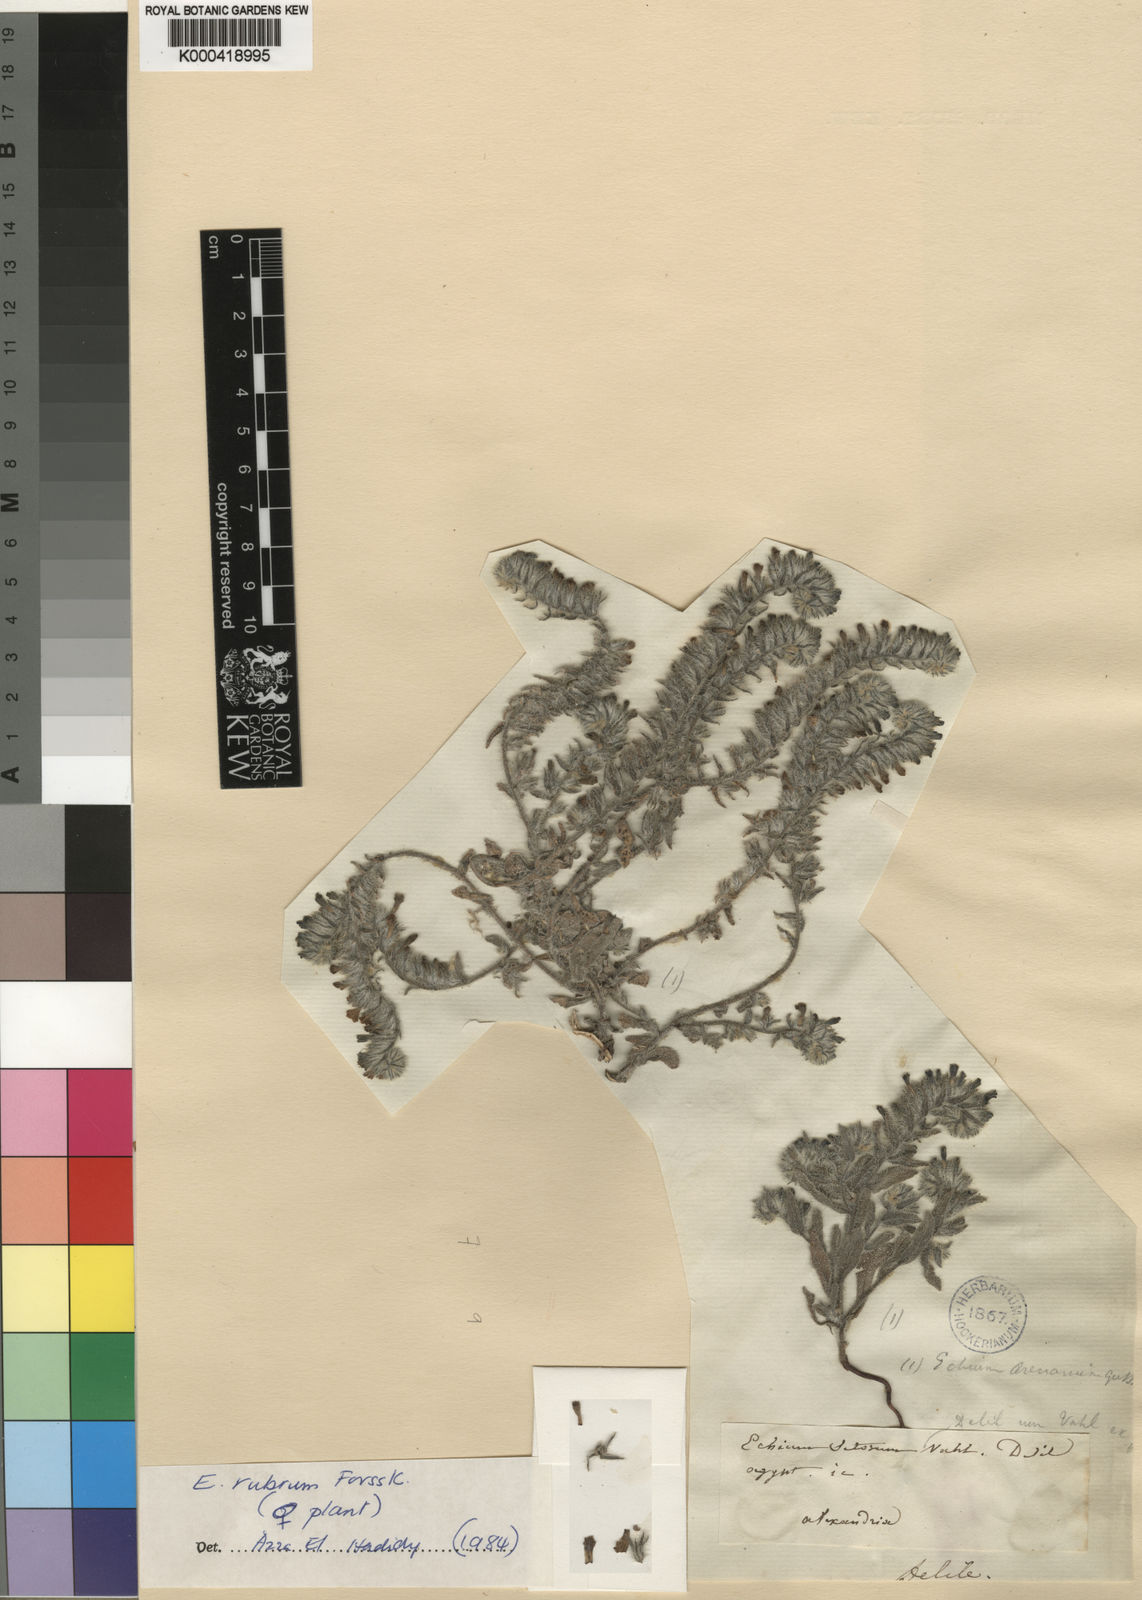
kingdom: Plantae
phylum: Tracheophyta
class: Magnoliopsida
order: Boraginales
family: Boraginaceae
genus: Echium
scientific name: Echium rubrum
